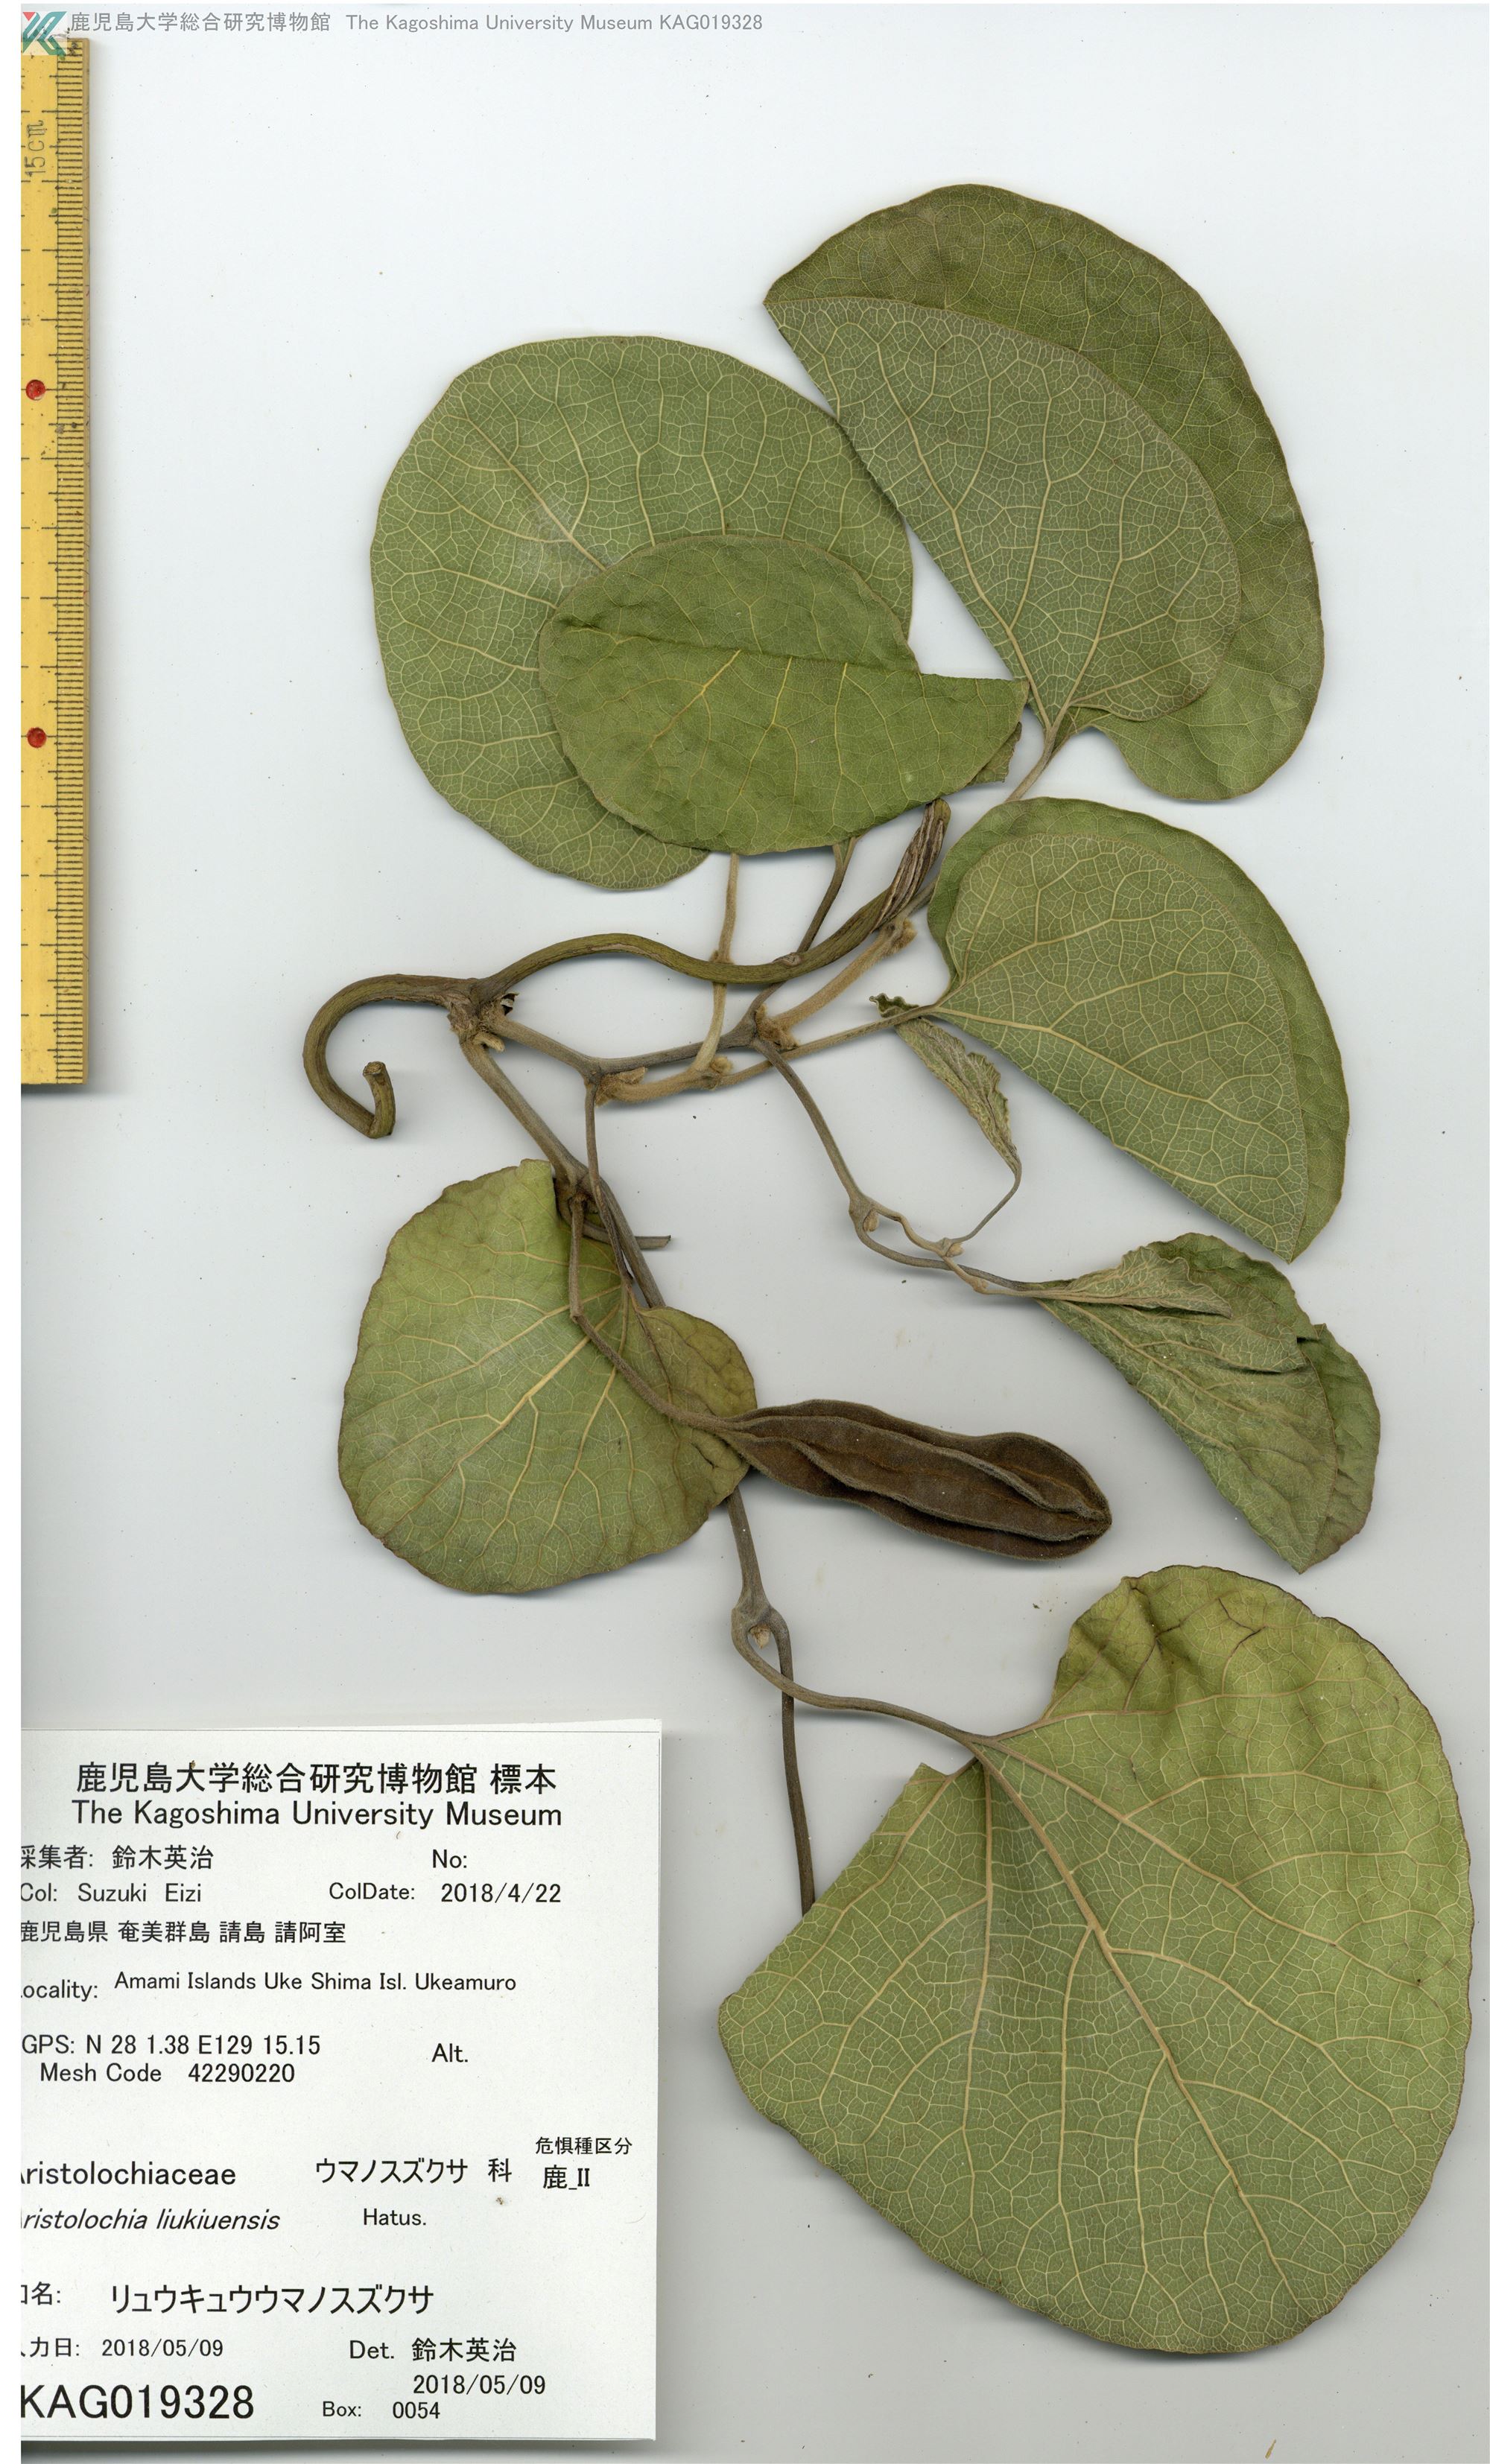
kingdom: Plantae
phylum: Tracheophyta
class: Magnoliopsida
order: Piperales
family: Aristolochiaceae
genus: Isotrema
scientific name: Isotrema liukiuense
